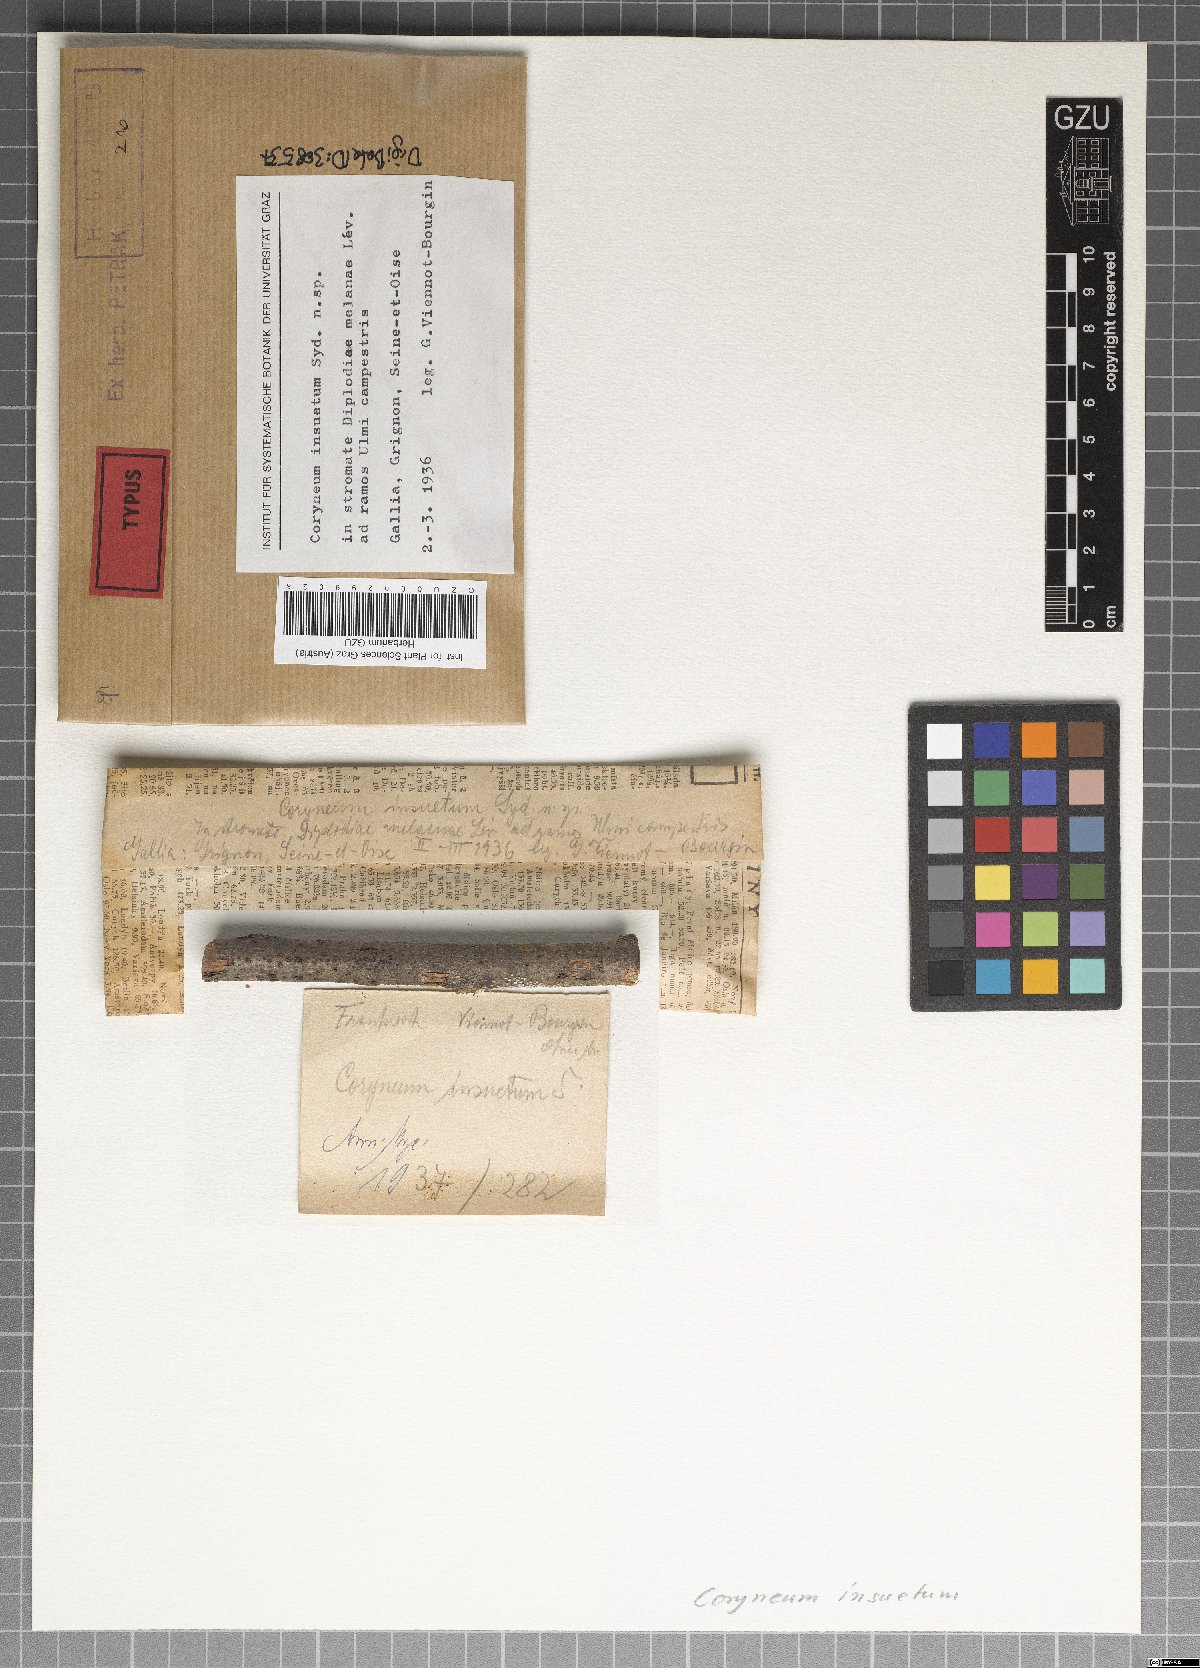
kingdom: Fungi
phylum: Ascomycota
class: Sordariomycetes
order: Diaporthales
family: Coryneaceae
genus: Coryneum
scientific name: Coryneum insuetum
